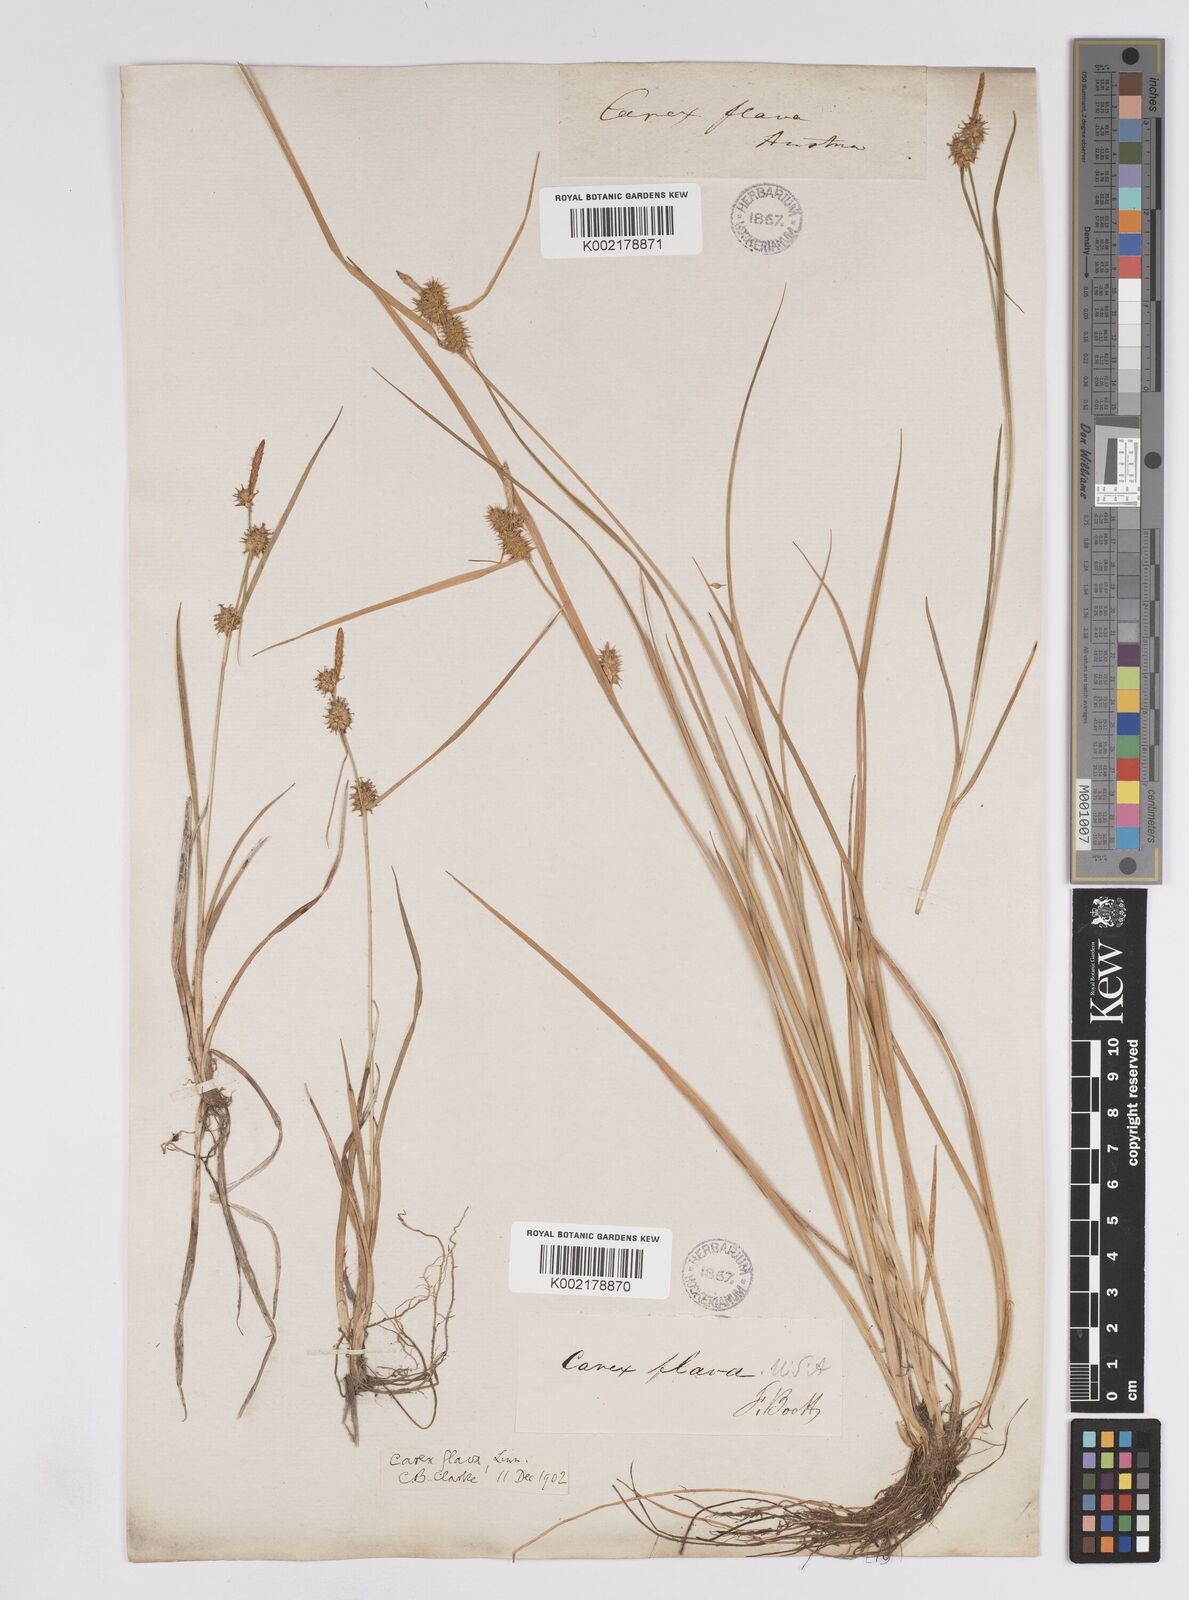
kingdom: Plantae
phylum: Tracheophyta
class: Liliopsida
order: Poales
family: Cyperaceae
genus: Carex
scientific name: Carex lepidocarpa
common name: Long-stalked yellow-sedge
